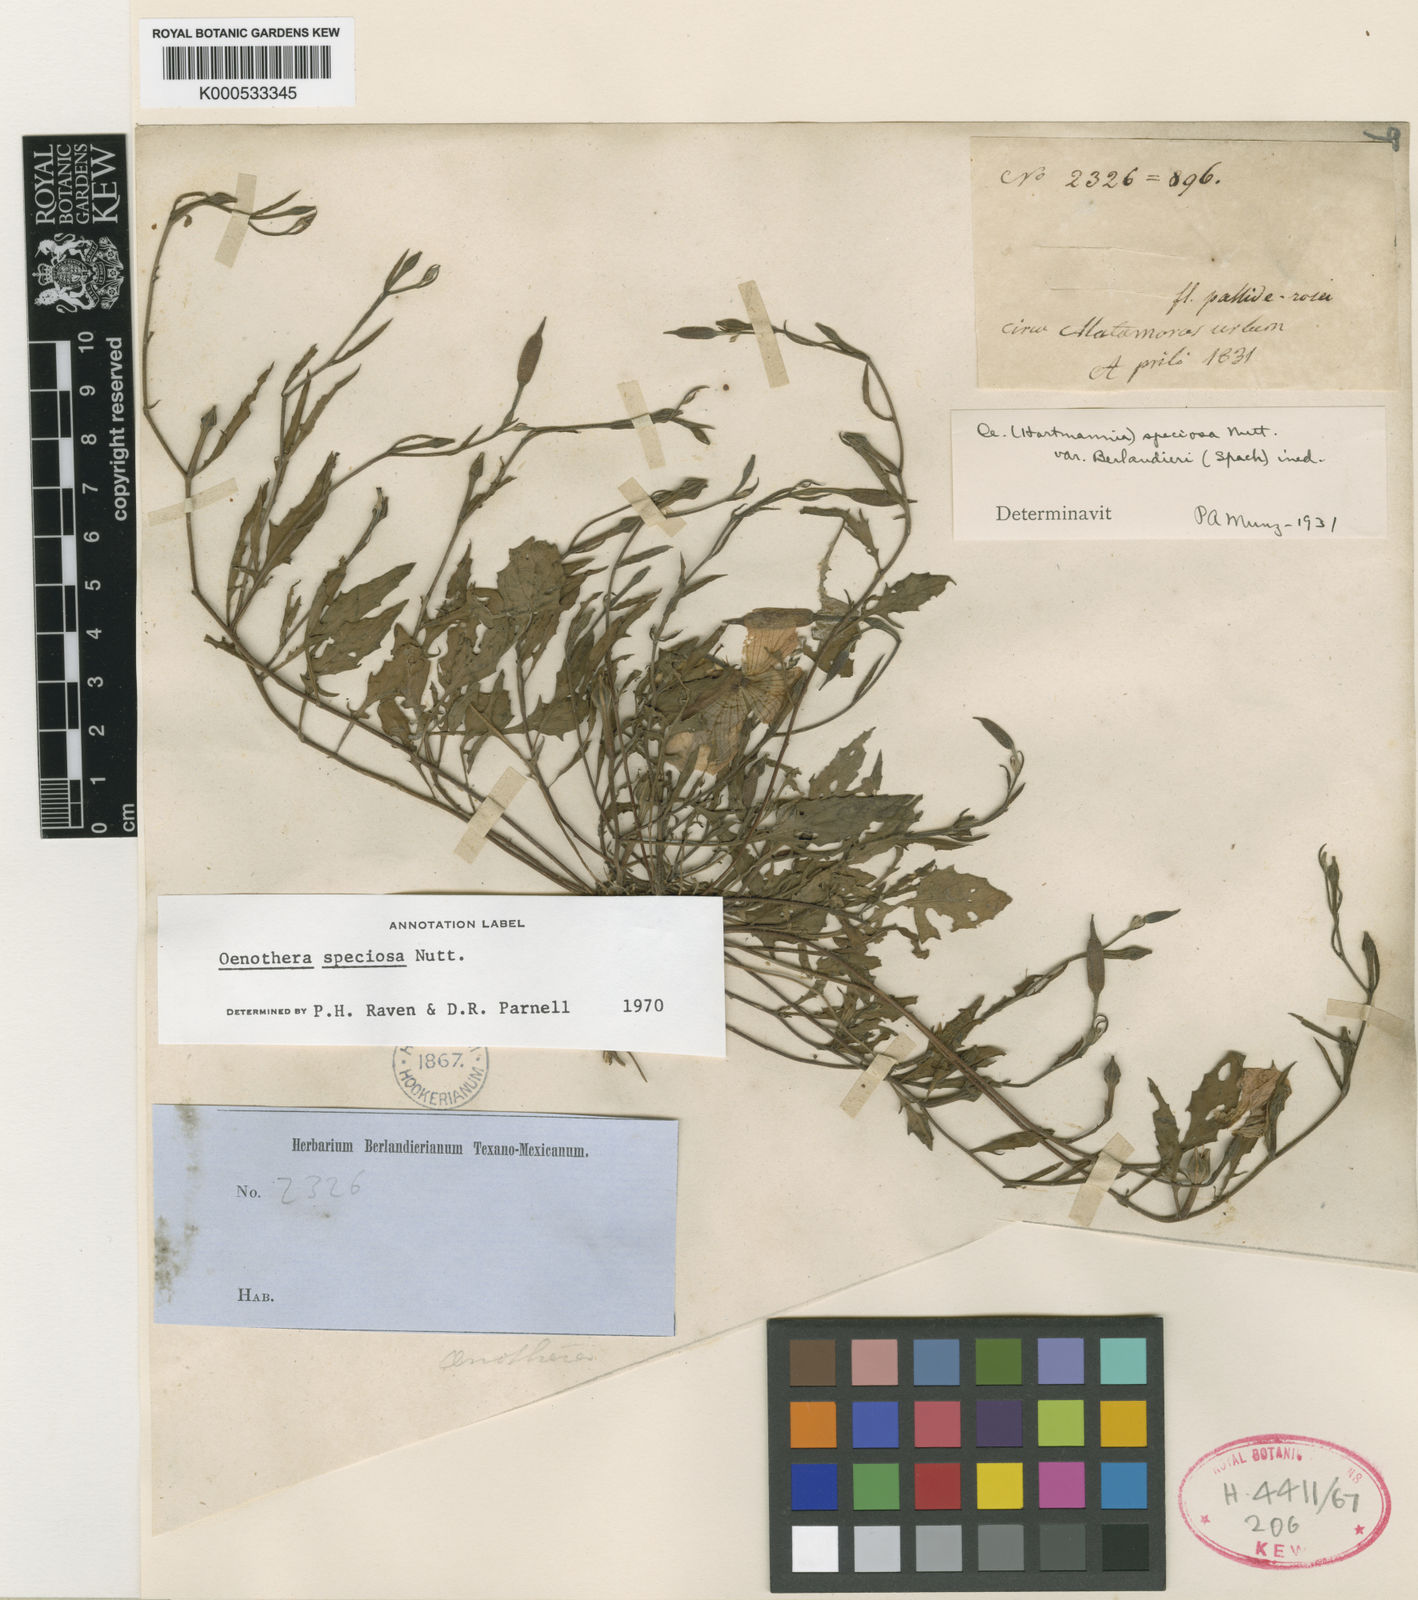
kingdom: Plantae
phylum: Tracheophyta
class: Magnoliopsida
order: Myrtales
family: Onagraceae
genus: Oenothera
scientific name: Oenothera speciosa
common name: White evening-primrose
